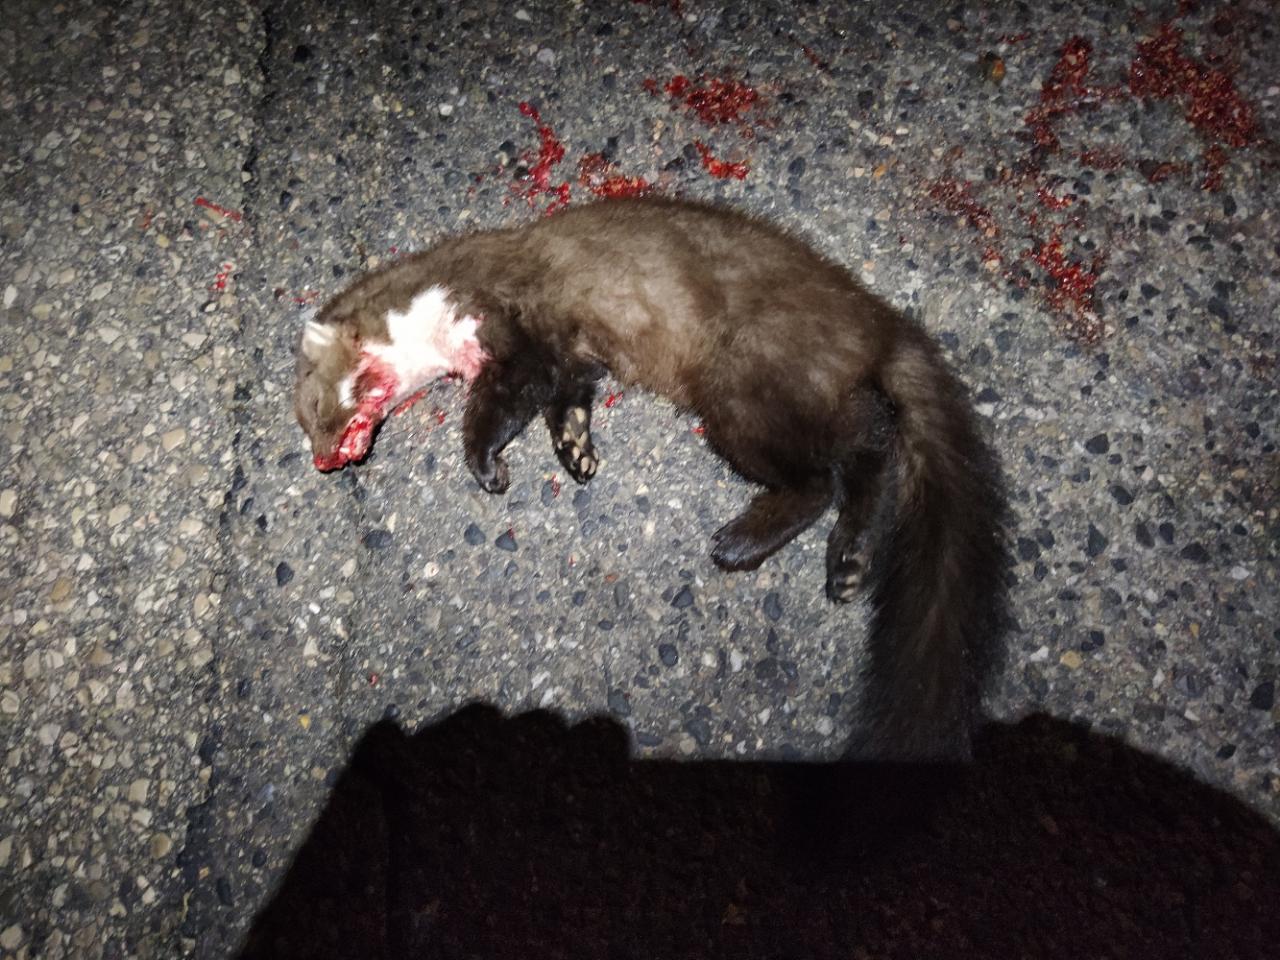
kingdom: Animalia
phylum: Chordata
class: Mammalia
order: Carnivora
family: Mustelidae
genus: Martes
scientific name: Martes foina
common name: Beech marten
